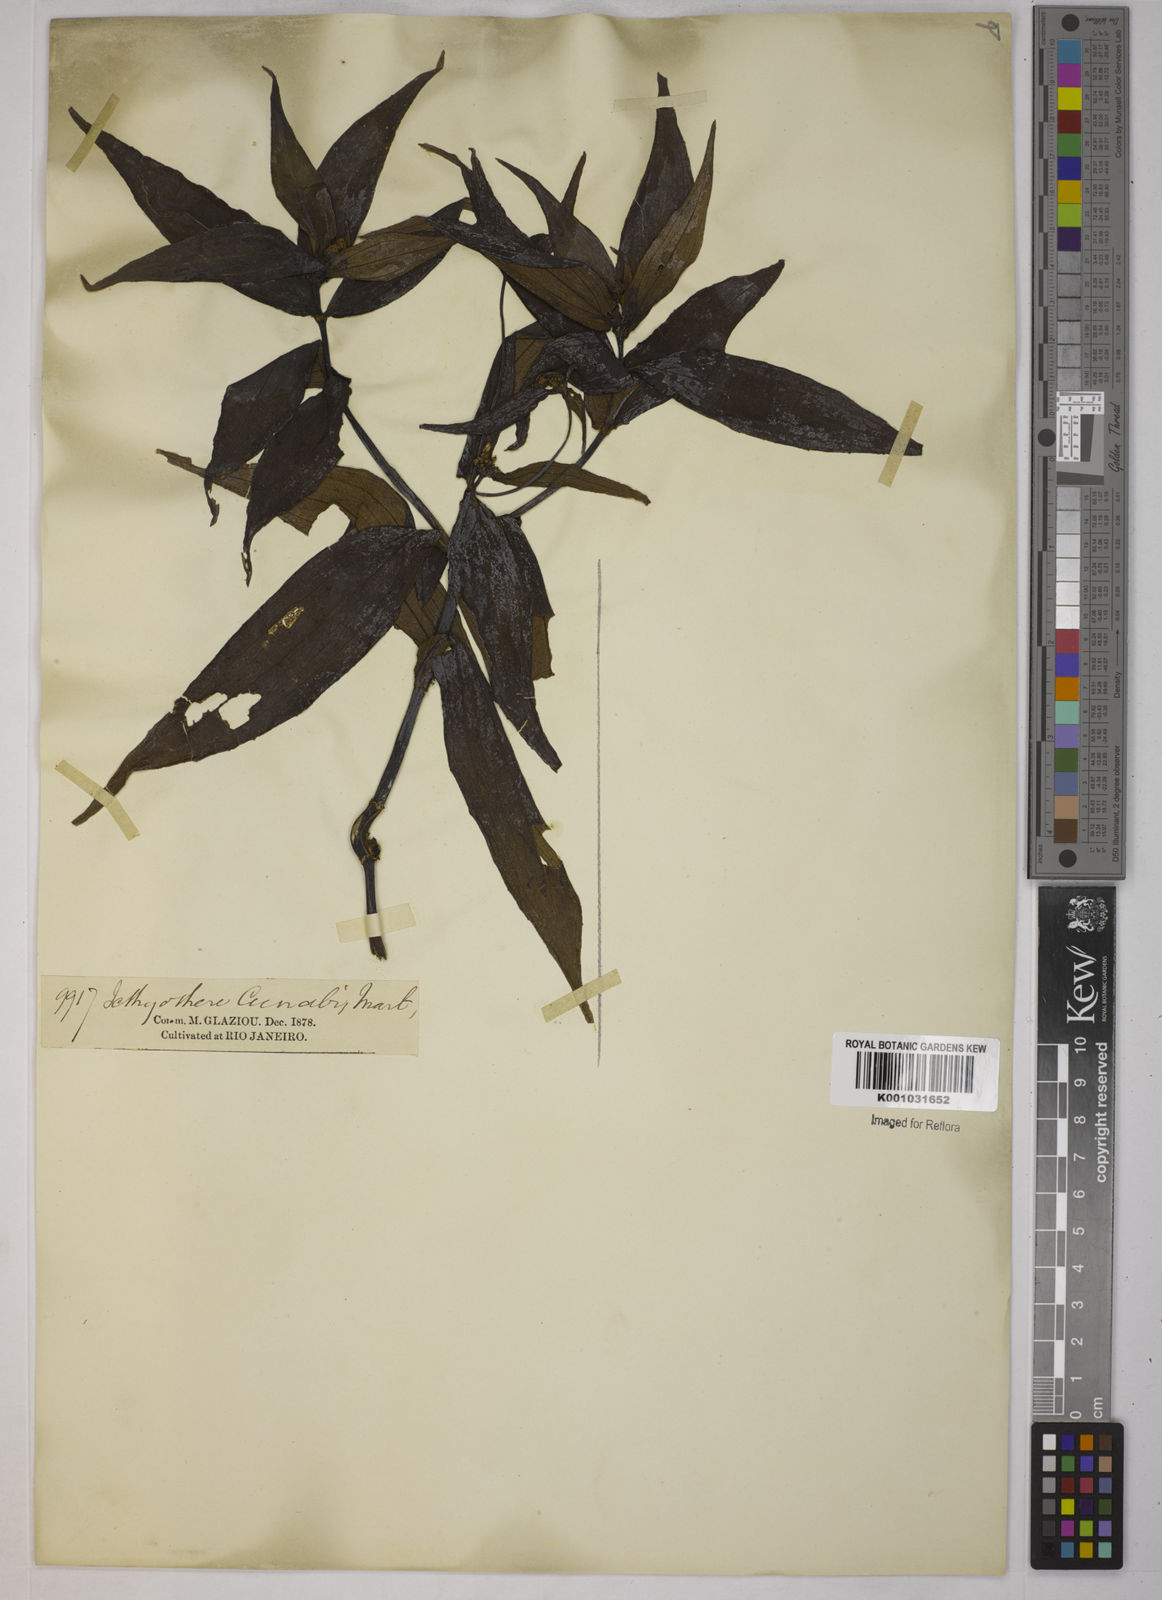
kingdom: Plantae
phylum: Tracheophyta
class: Magnoliopsida
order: Asterales
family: Asteraceae
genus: Ichthyothere
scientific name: Ichthyothere terminalis
